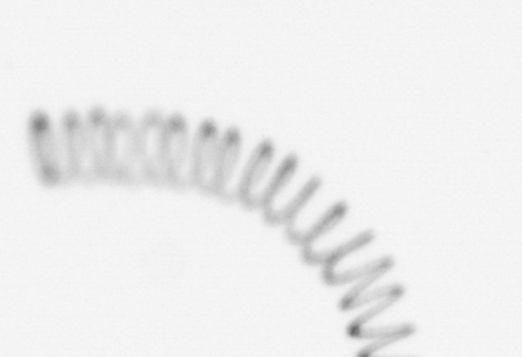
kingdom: Chromista
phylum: Ochrophyta
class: Bacillariophyceae
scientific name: Bacillariophyceae
